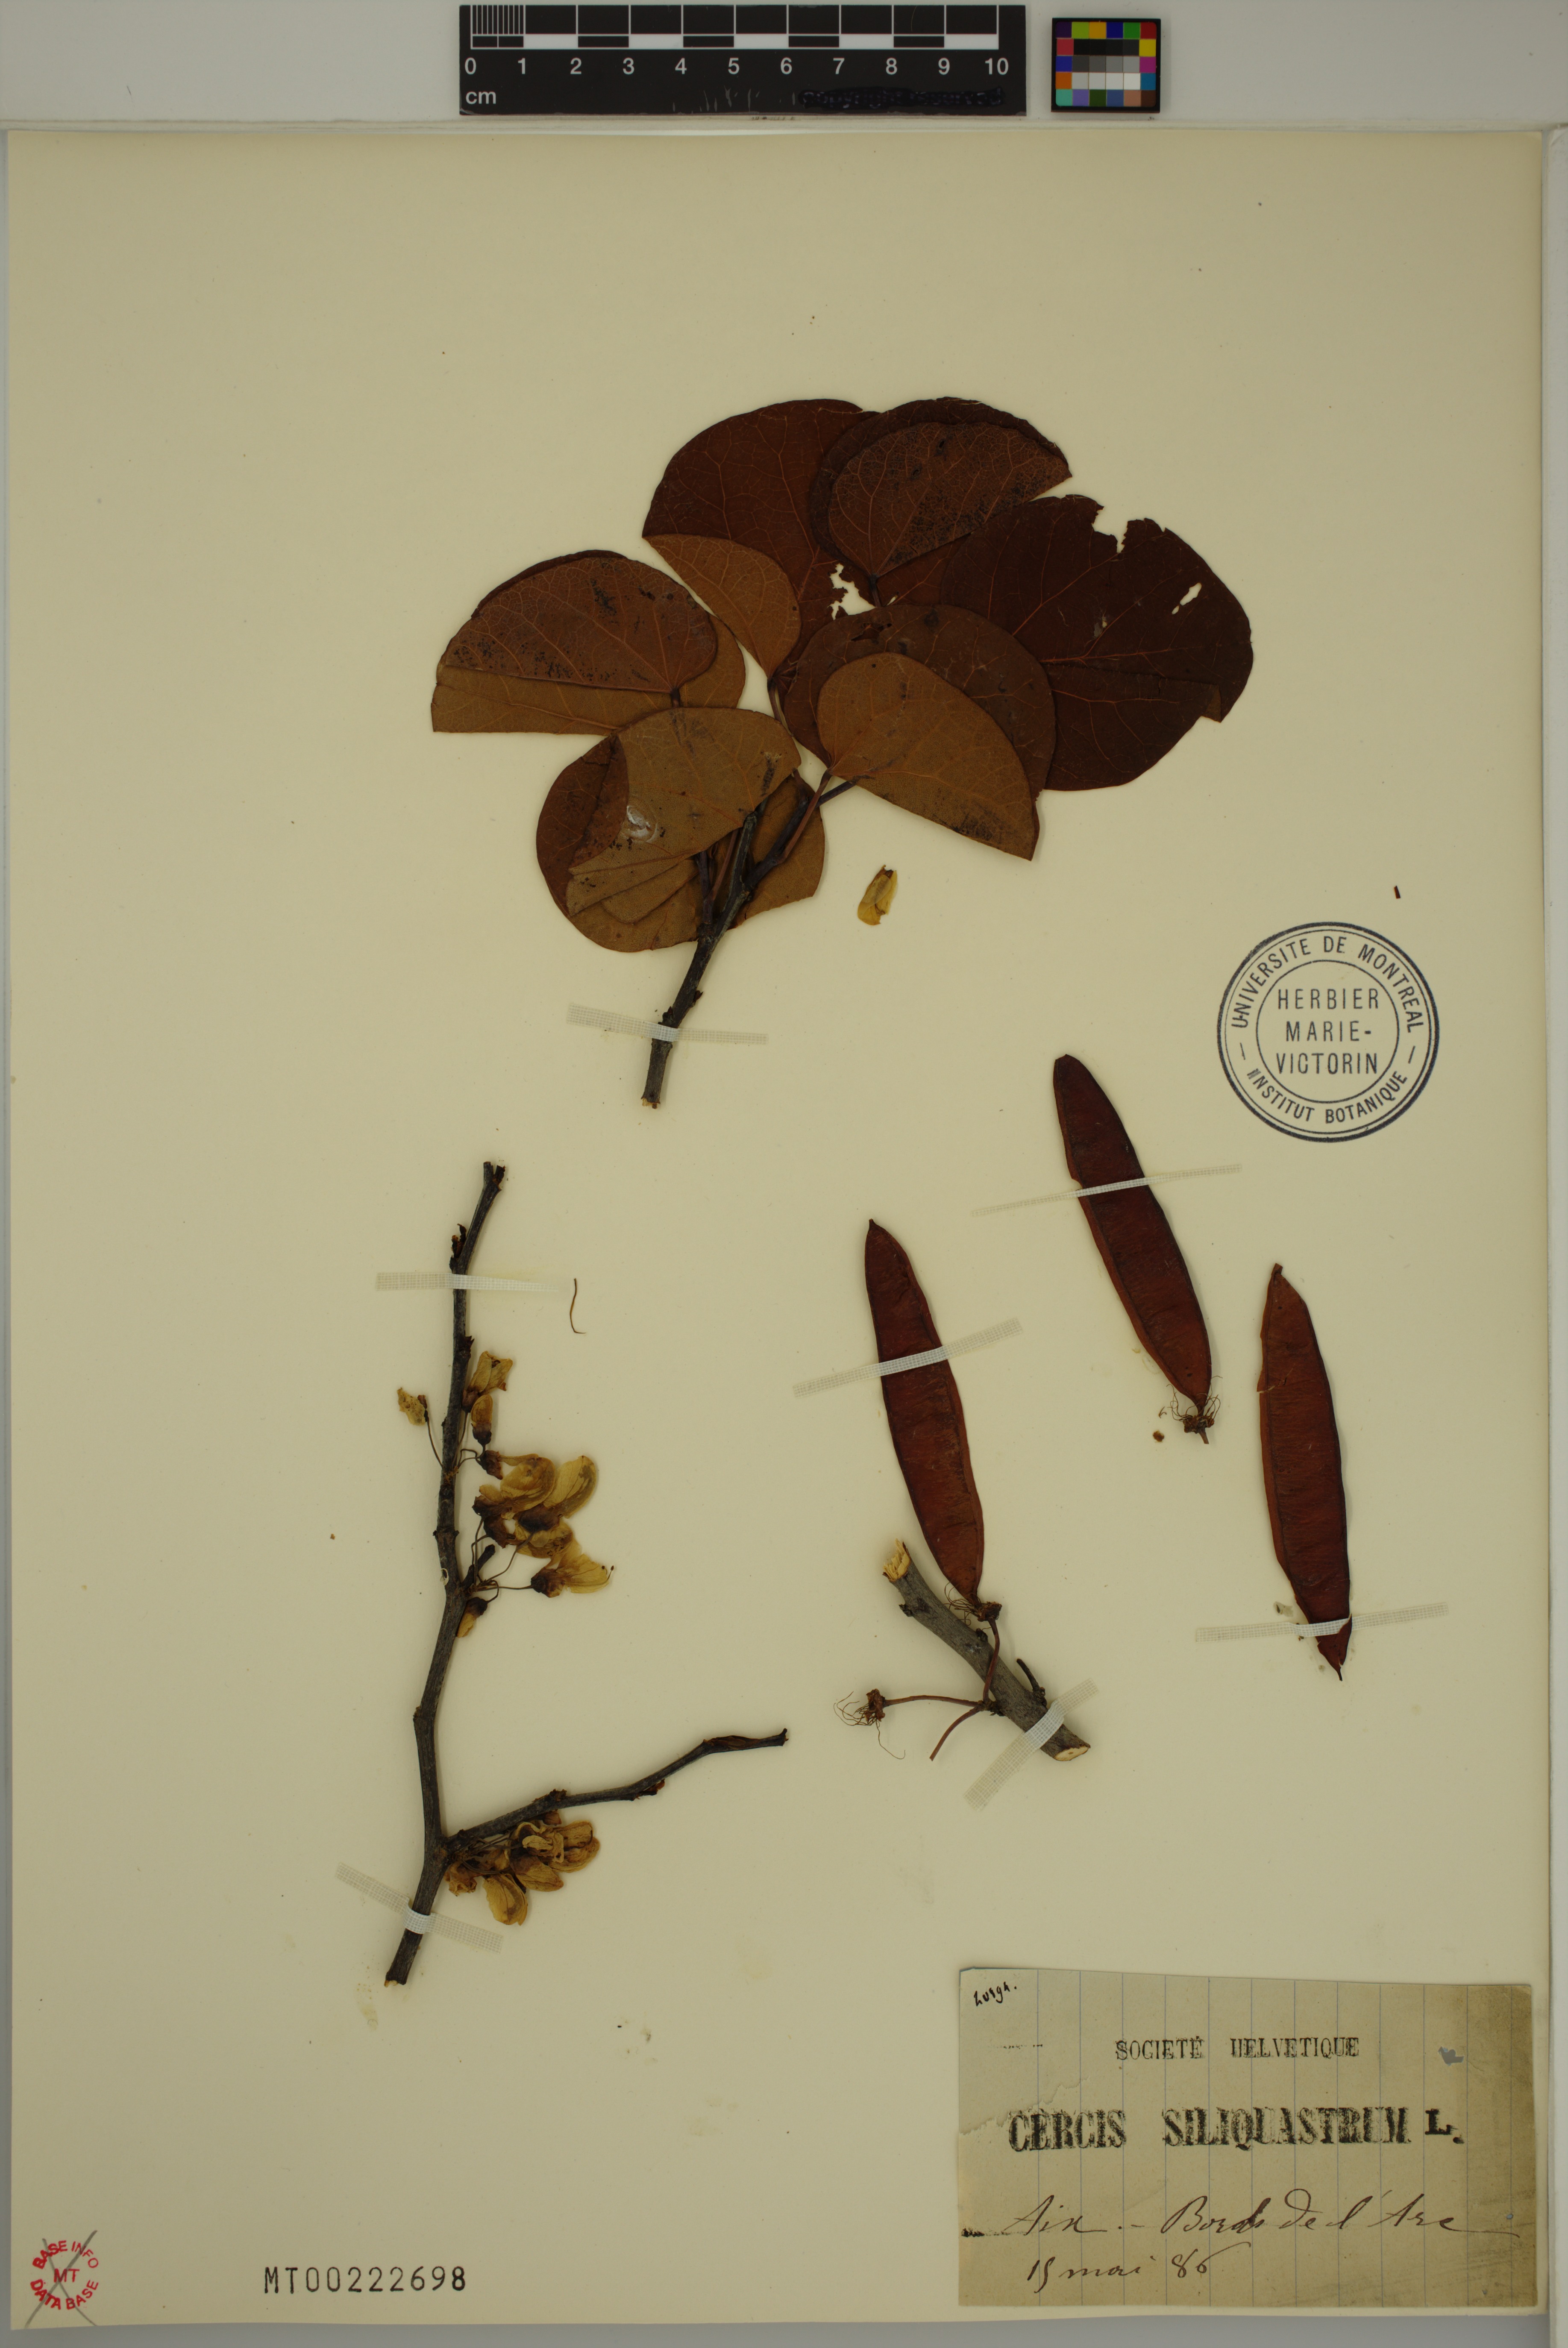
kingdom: Plantae
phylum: Tracheophyta
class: Magnoliopsida
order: Fabales
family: Fabaceae
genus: Cercis
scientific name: Cercis siliquastrum
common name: Judas tree
